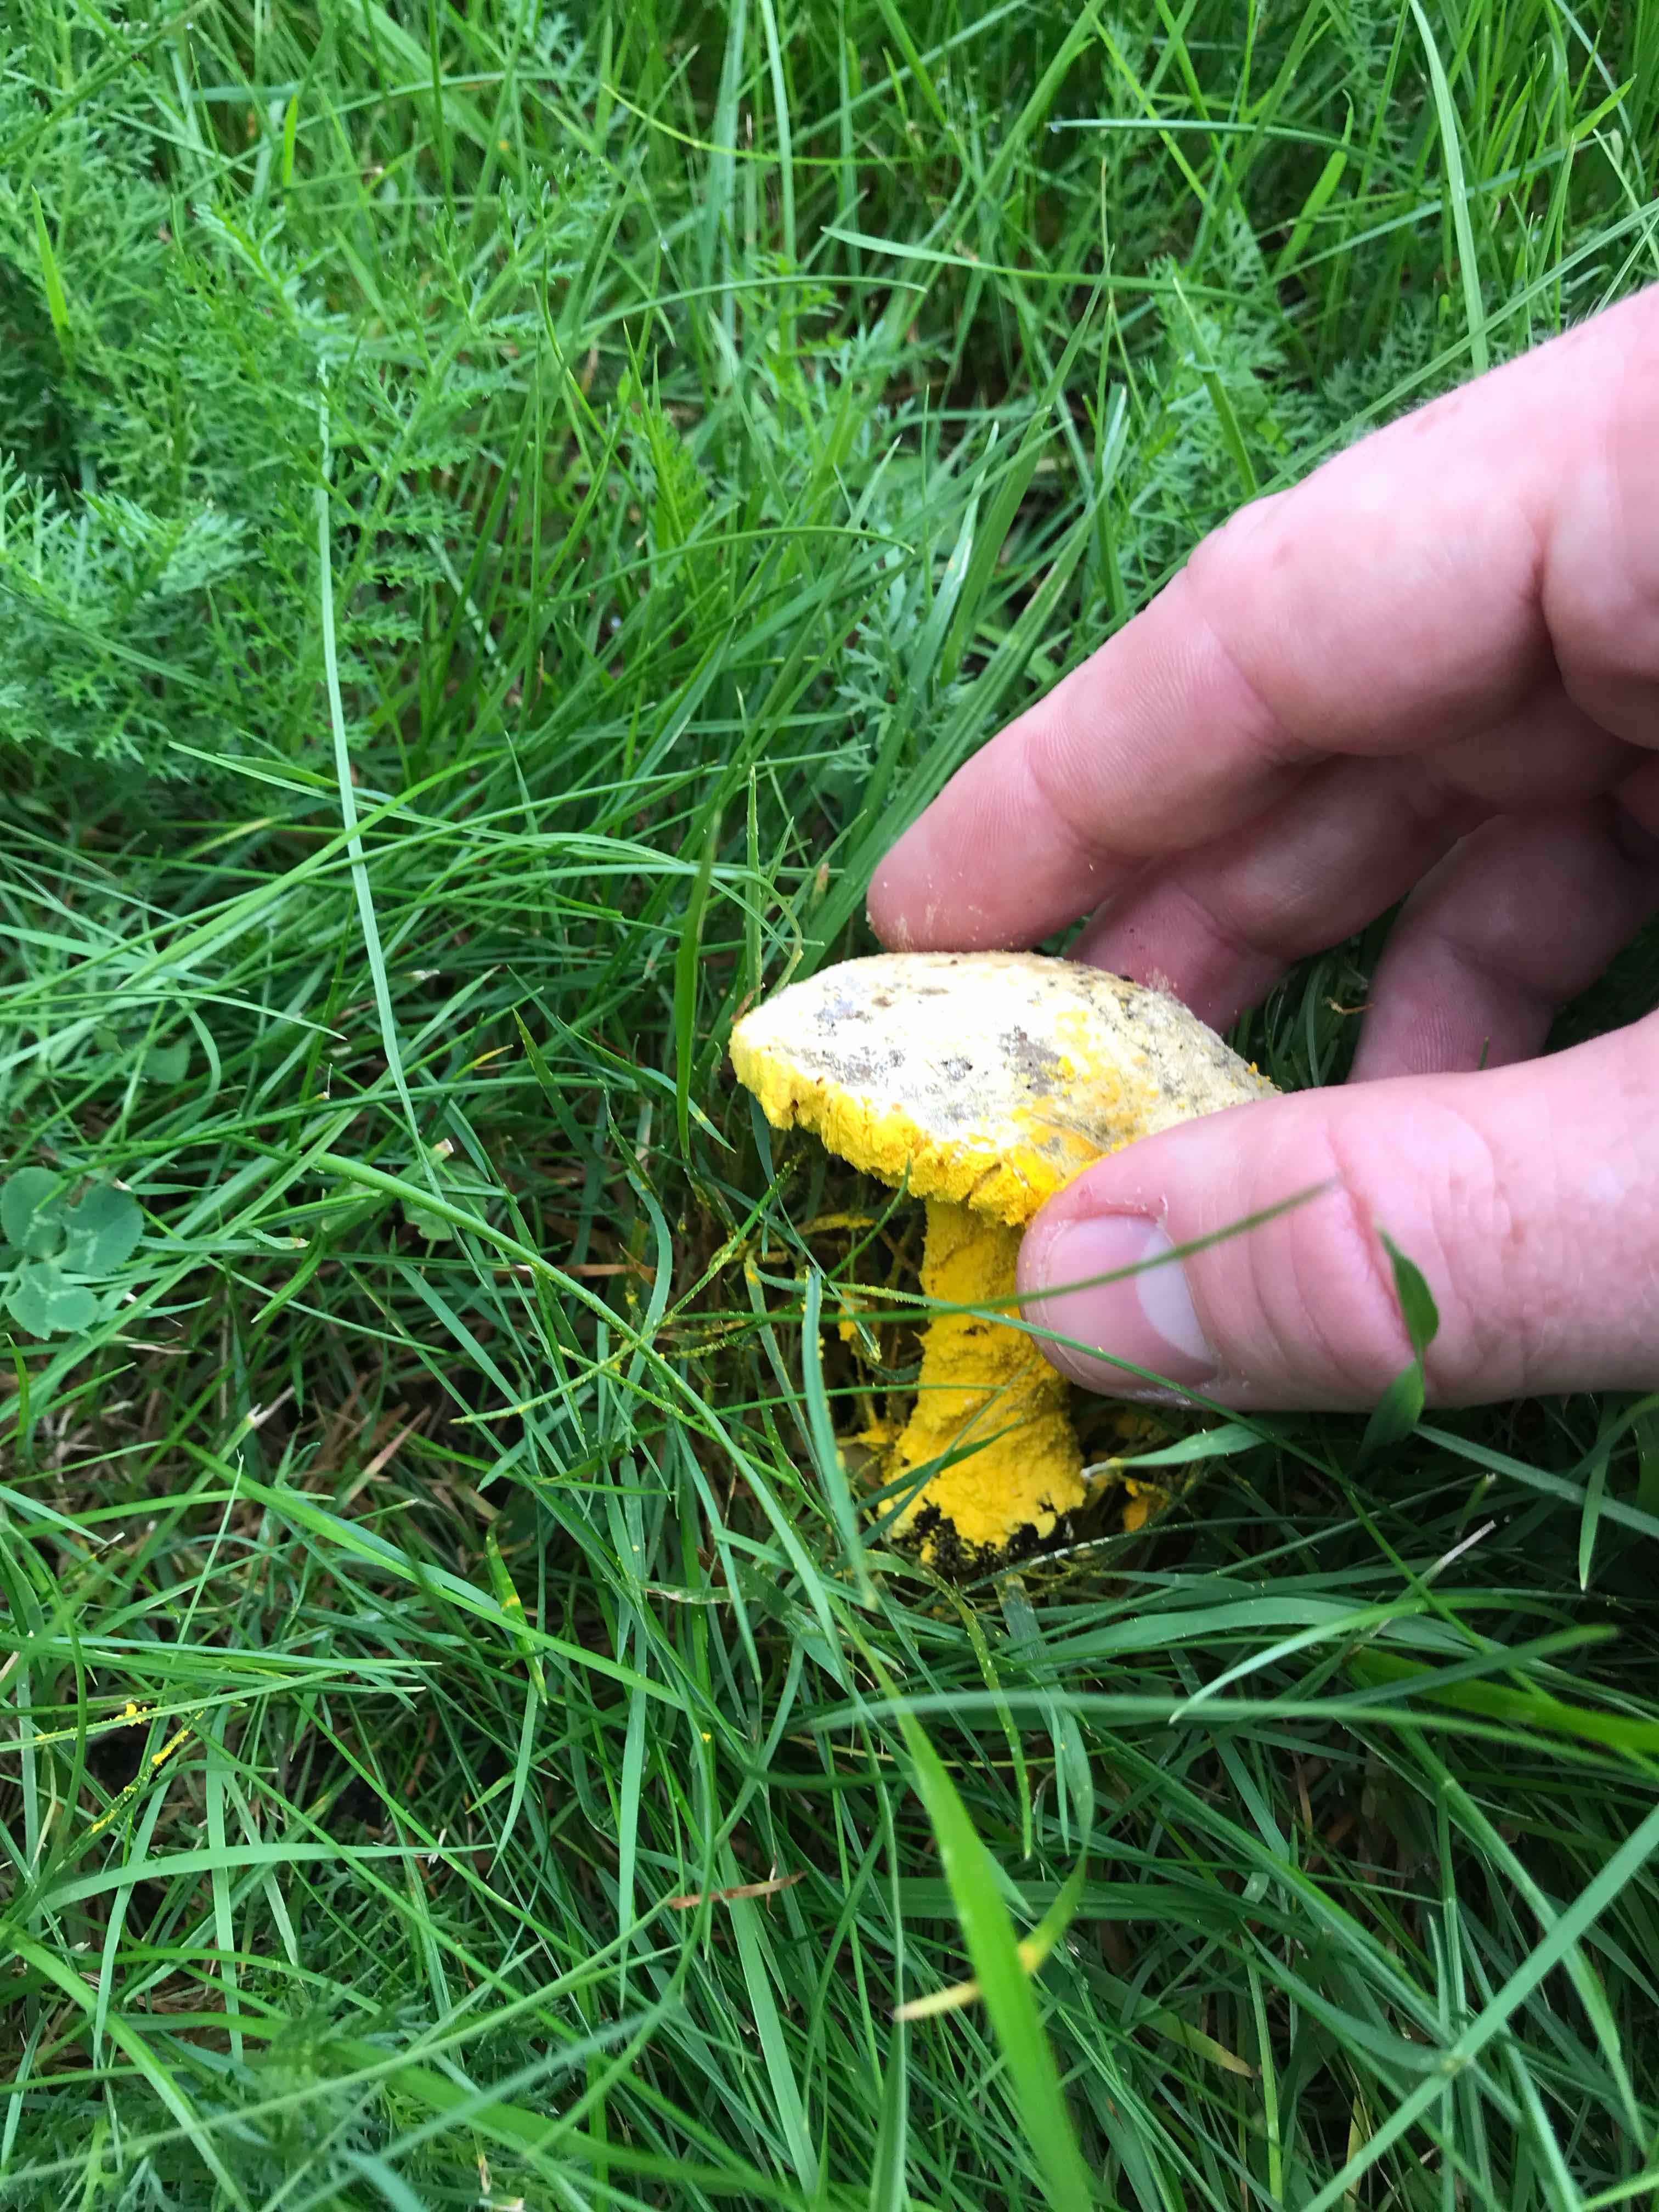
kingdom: Fungi
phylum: Ascomycota
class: Sordariomycetes
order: Hypocreales
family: Hypocreaceae
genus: Hypomyces
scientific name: Hypomyces
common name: snylteskorpe
